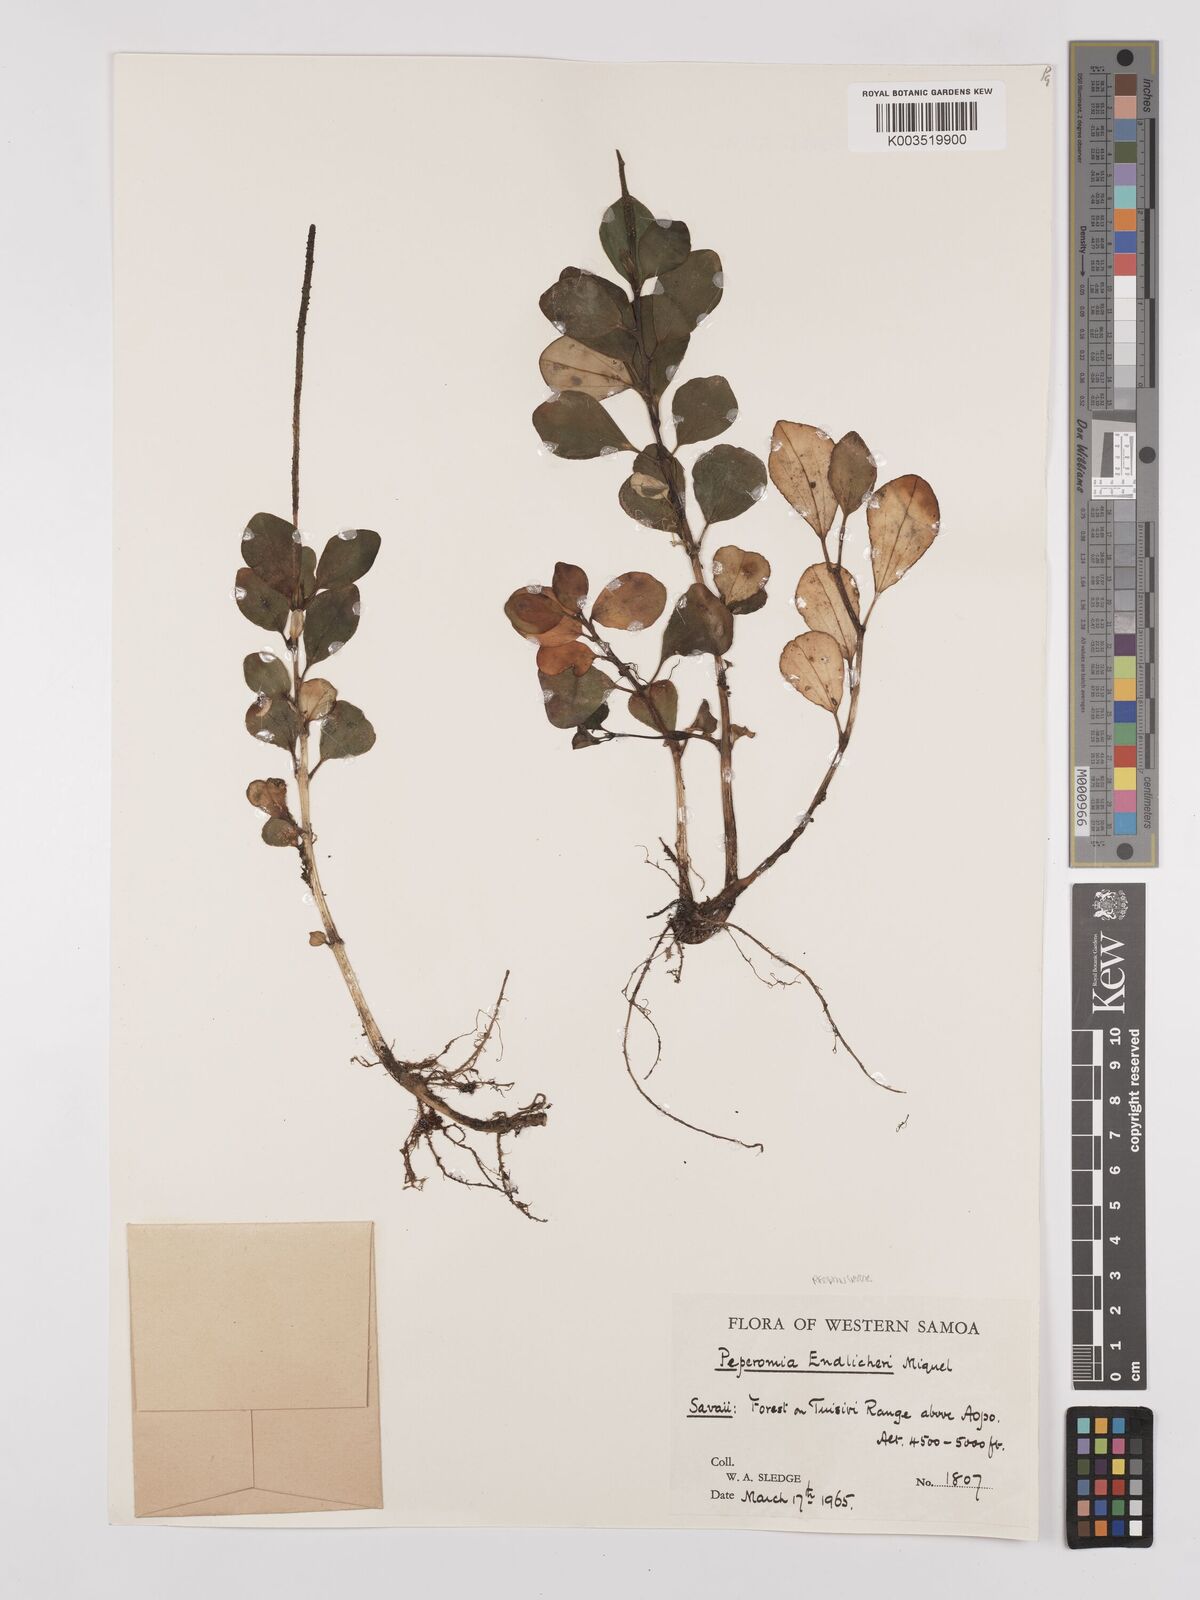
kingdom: Plantae
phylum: Tracheophyta
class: Magnoliopsida
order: Piperales
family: Piperaceae
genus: Peperomia
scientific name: Peperomia urvilleana
